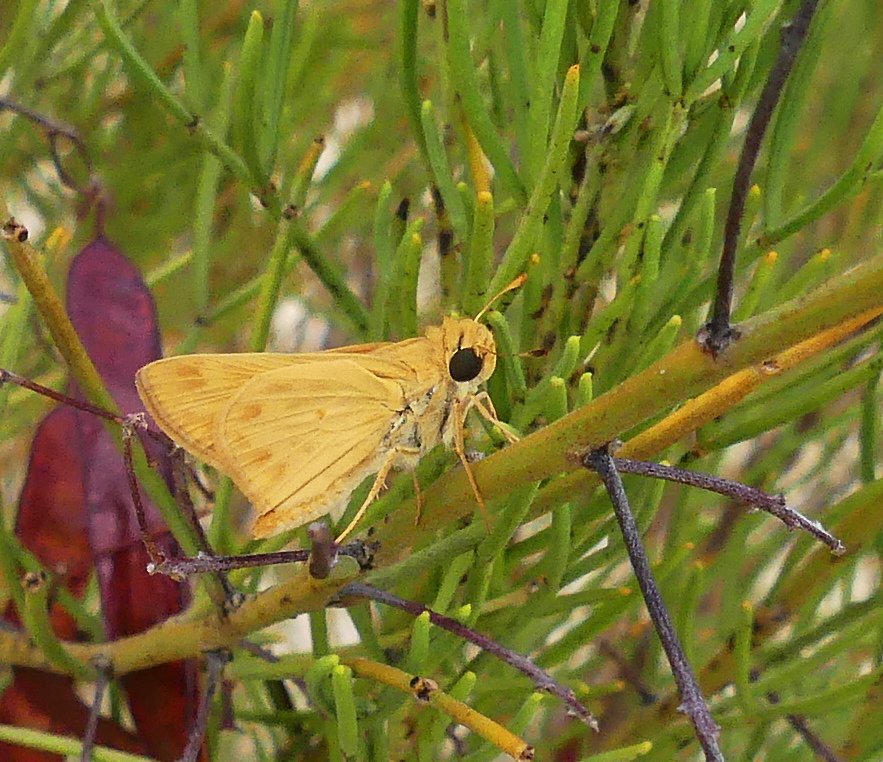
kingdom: Animalia
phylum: Arthropoda
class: Insecta
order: Lepidoptera
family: Hesperiidae
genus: Hylephila
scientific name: Hylephila phyleus
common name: Fiery Skipper
